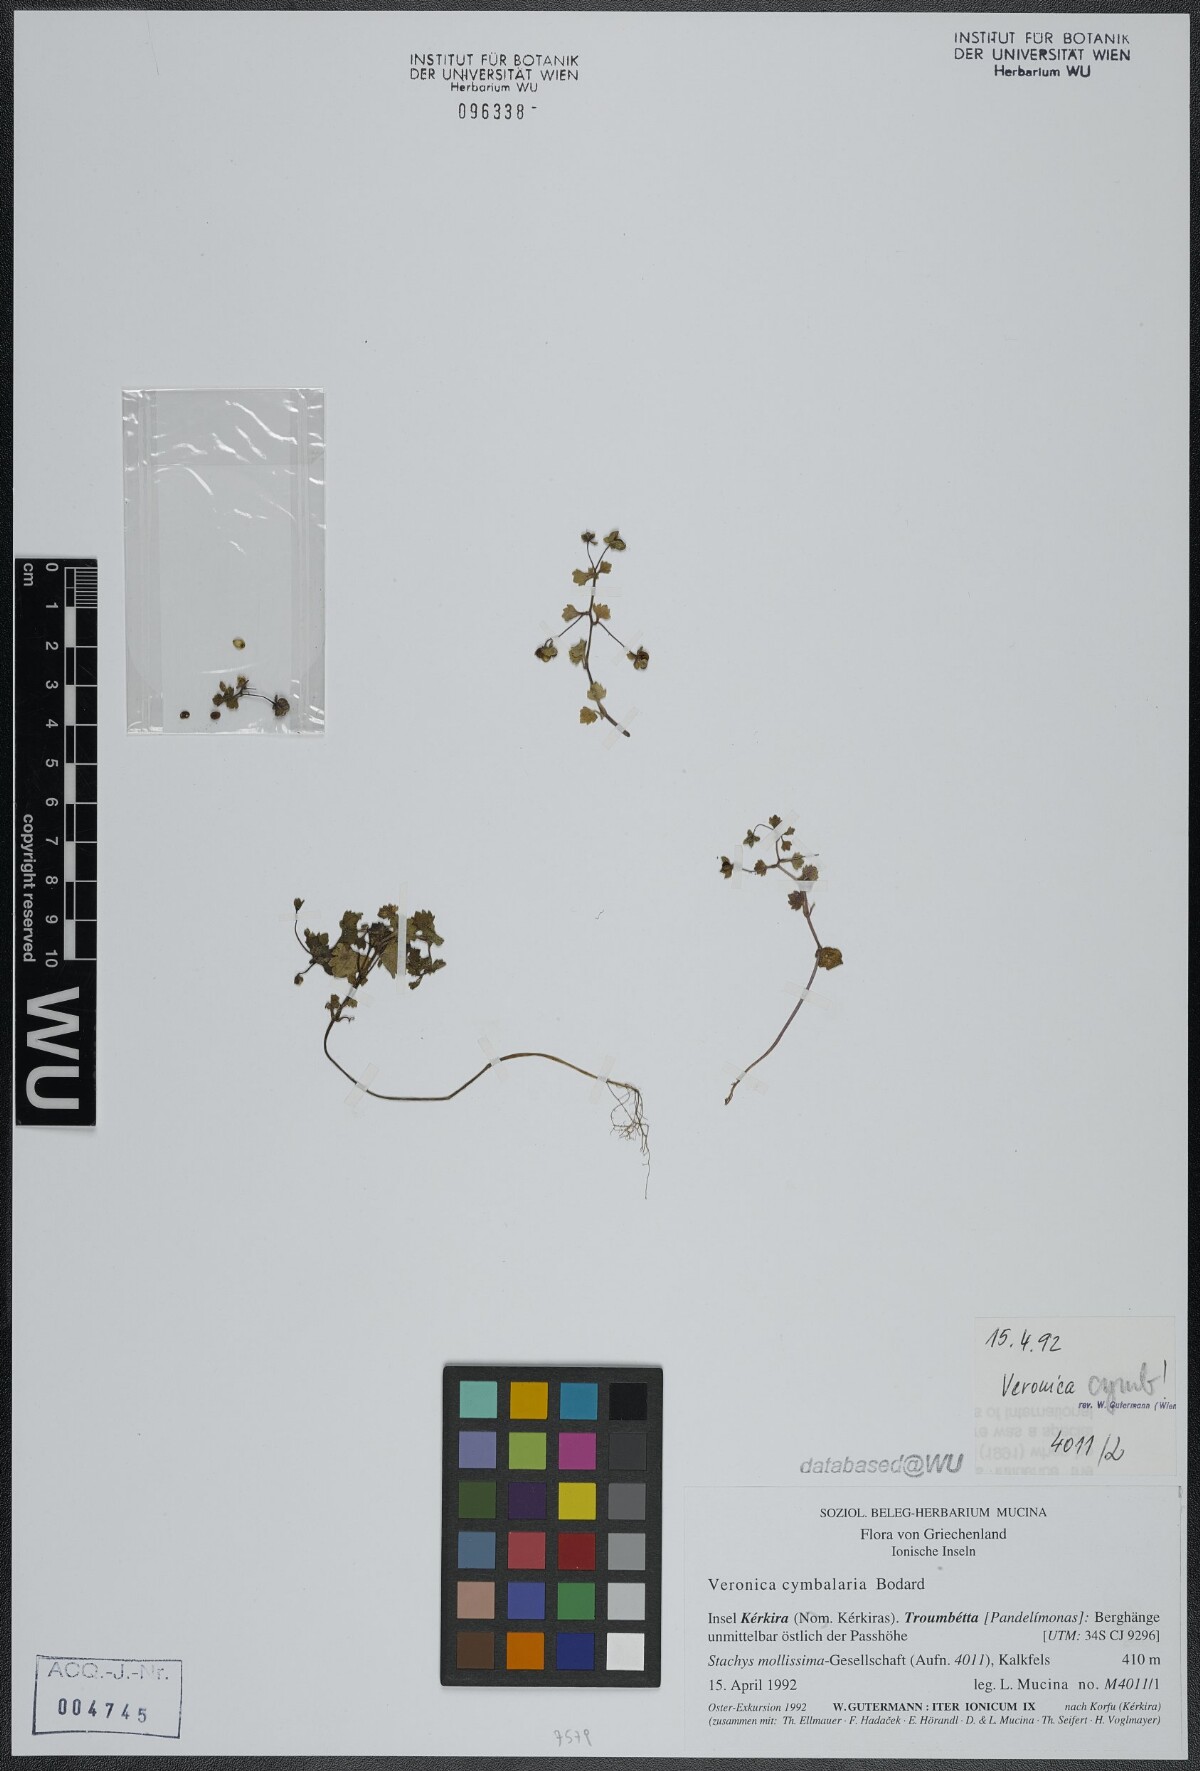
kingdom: Plantae
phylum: Tracheophyta
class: Magnoliopsida
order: Lamiales
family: Plantaginaceae
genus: Veronica
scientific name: Veronica cymbalaria
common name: Pale speedwell
